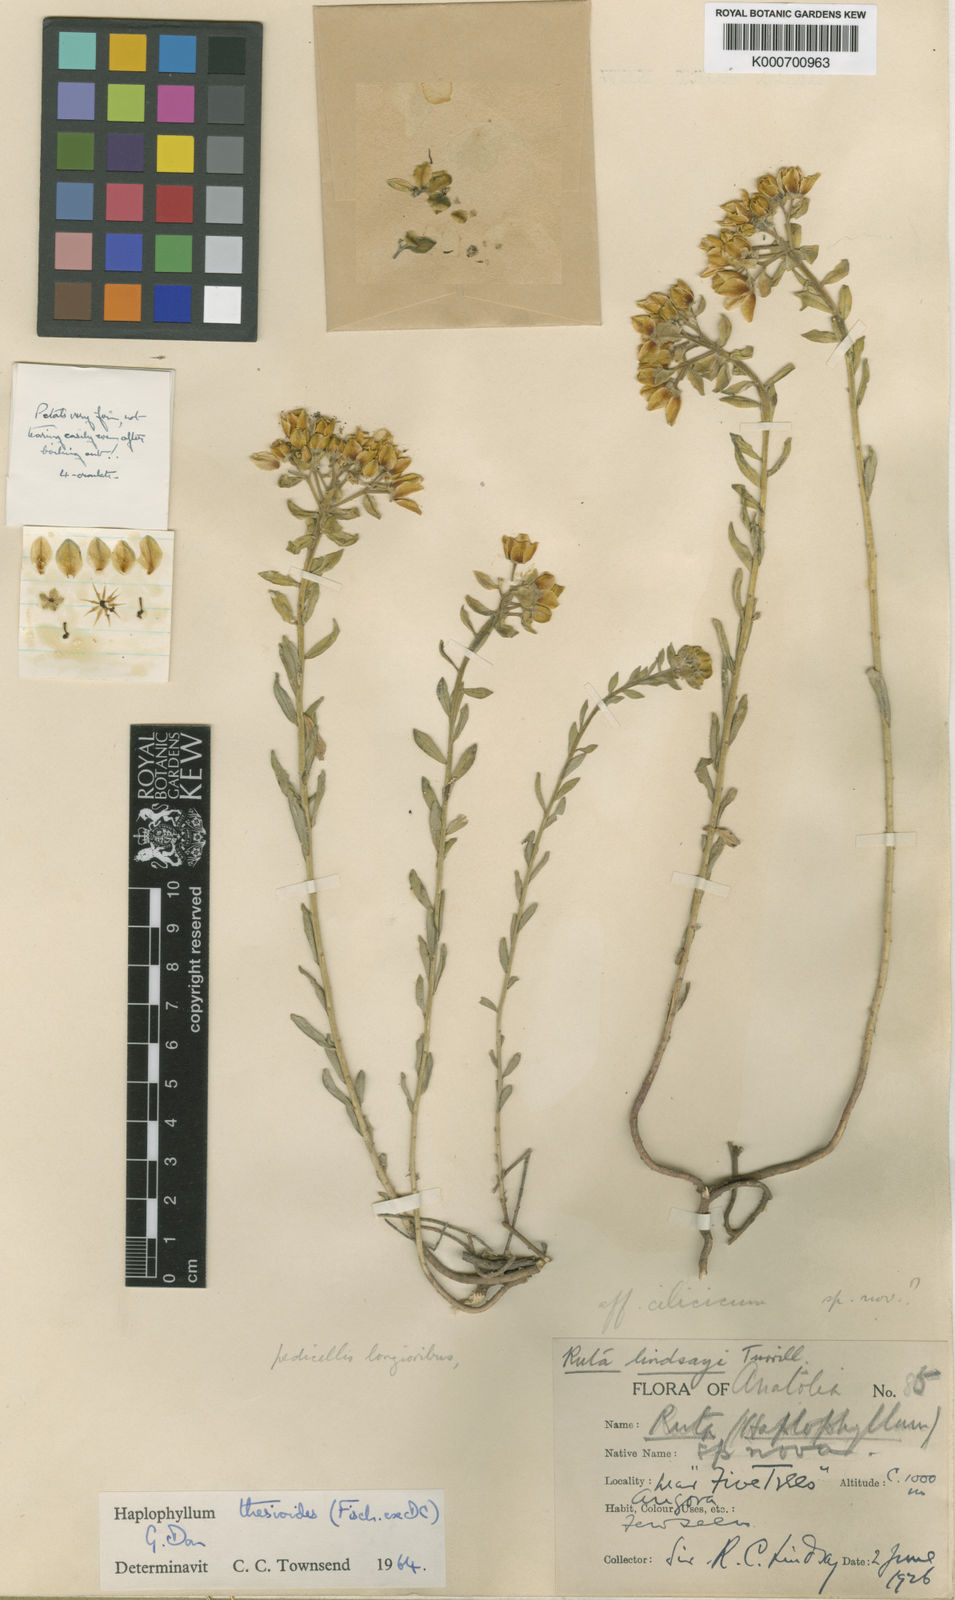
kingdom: Plantae
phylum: Tracheophyta
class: Magnoliopsida
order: Sapindales
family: Rutaceae
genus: Haplophyllum
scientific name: Haplophyllum thesioides
